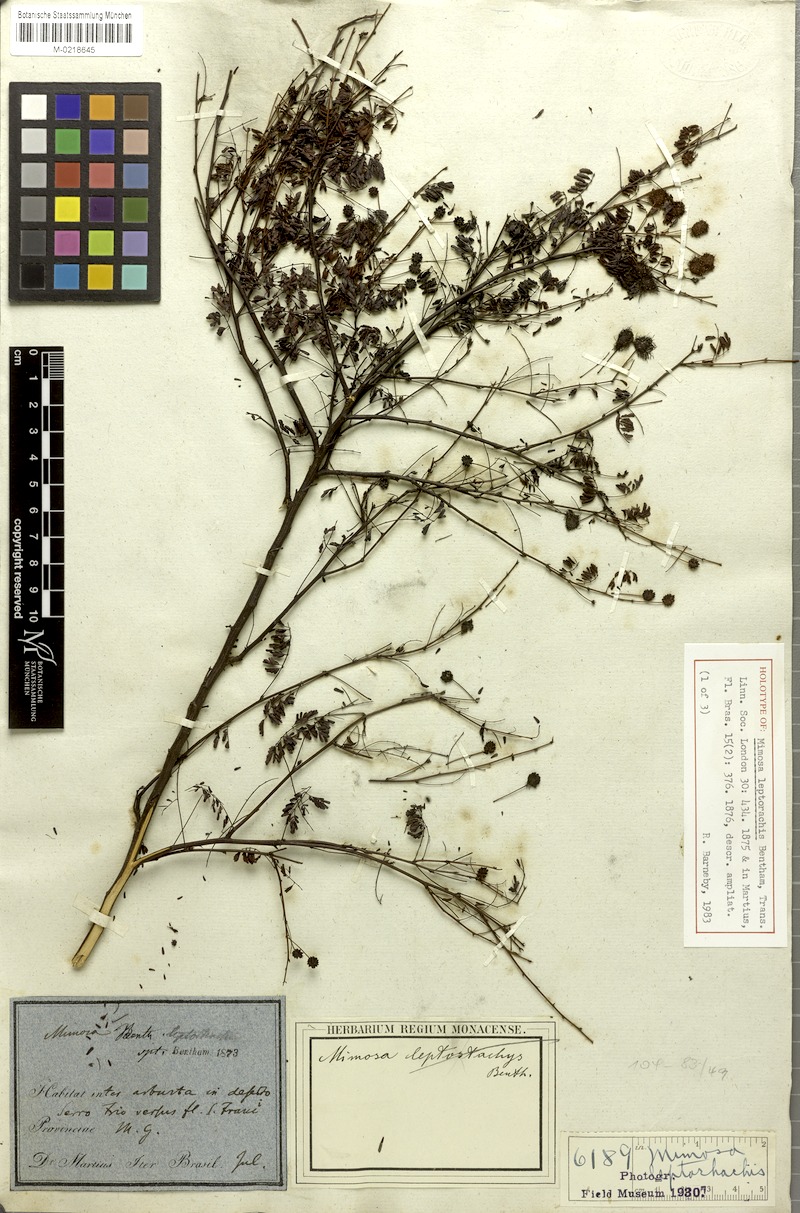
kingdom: Plantae
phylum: Tracheophyta
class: Magnoliopsida
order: Fabales
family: Fabaceae
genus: Mimosa
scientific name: Mimosa leptorhachis
